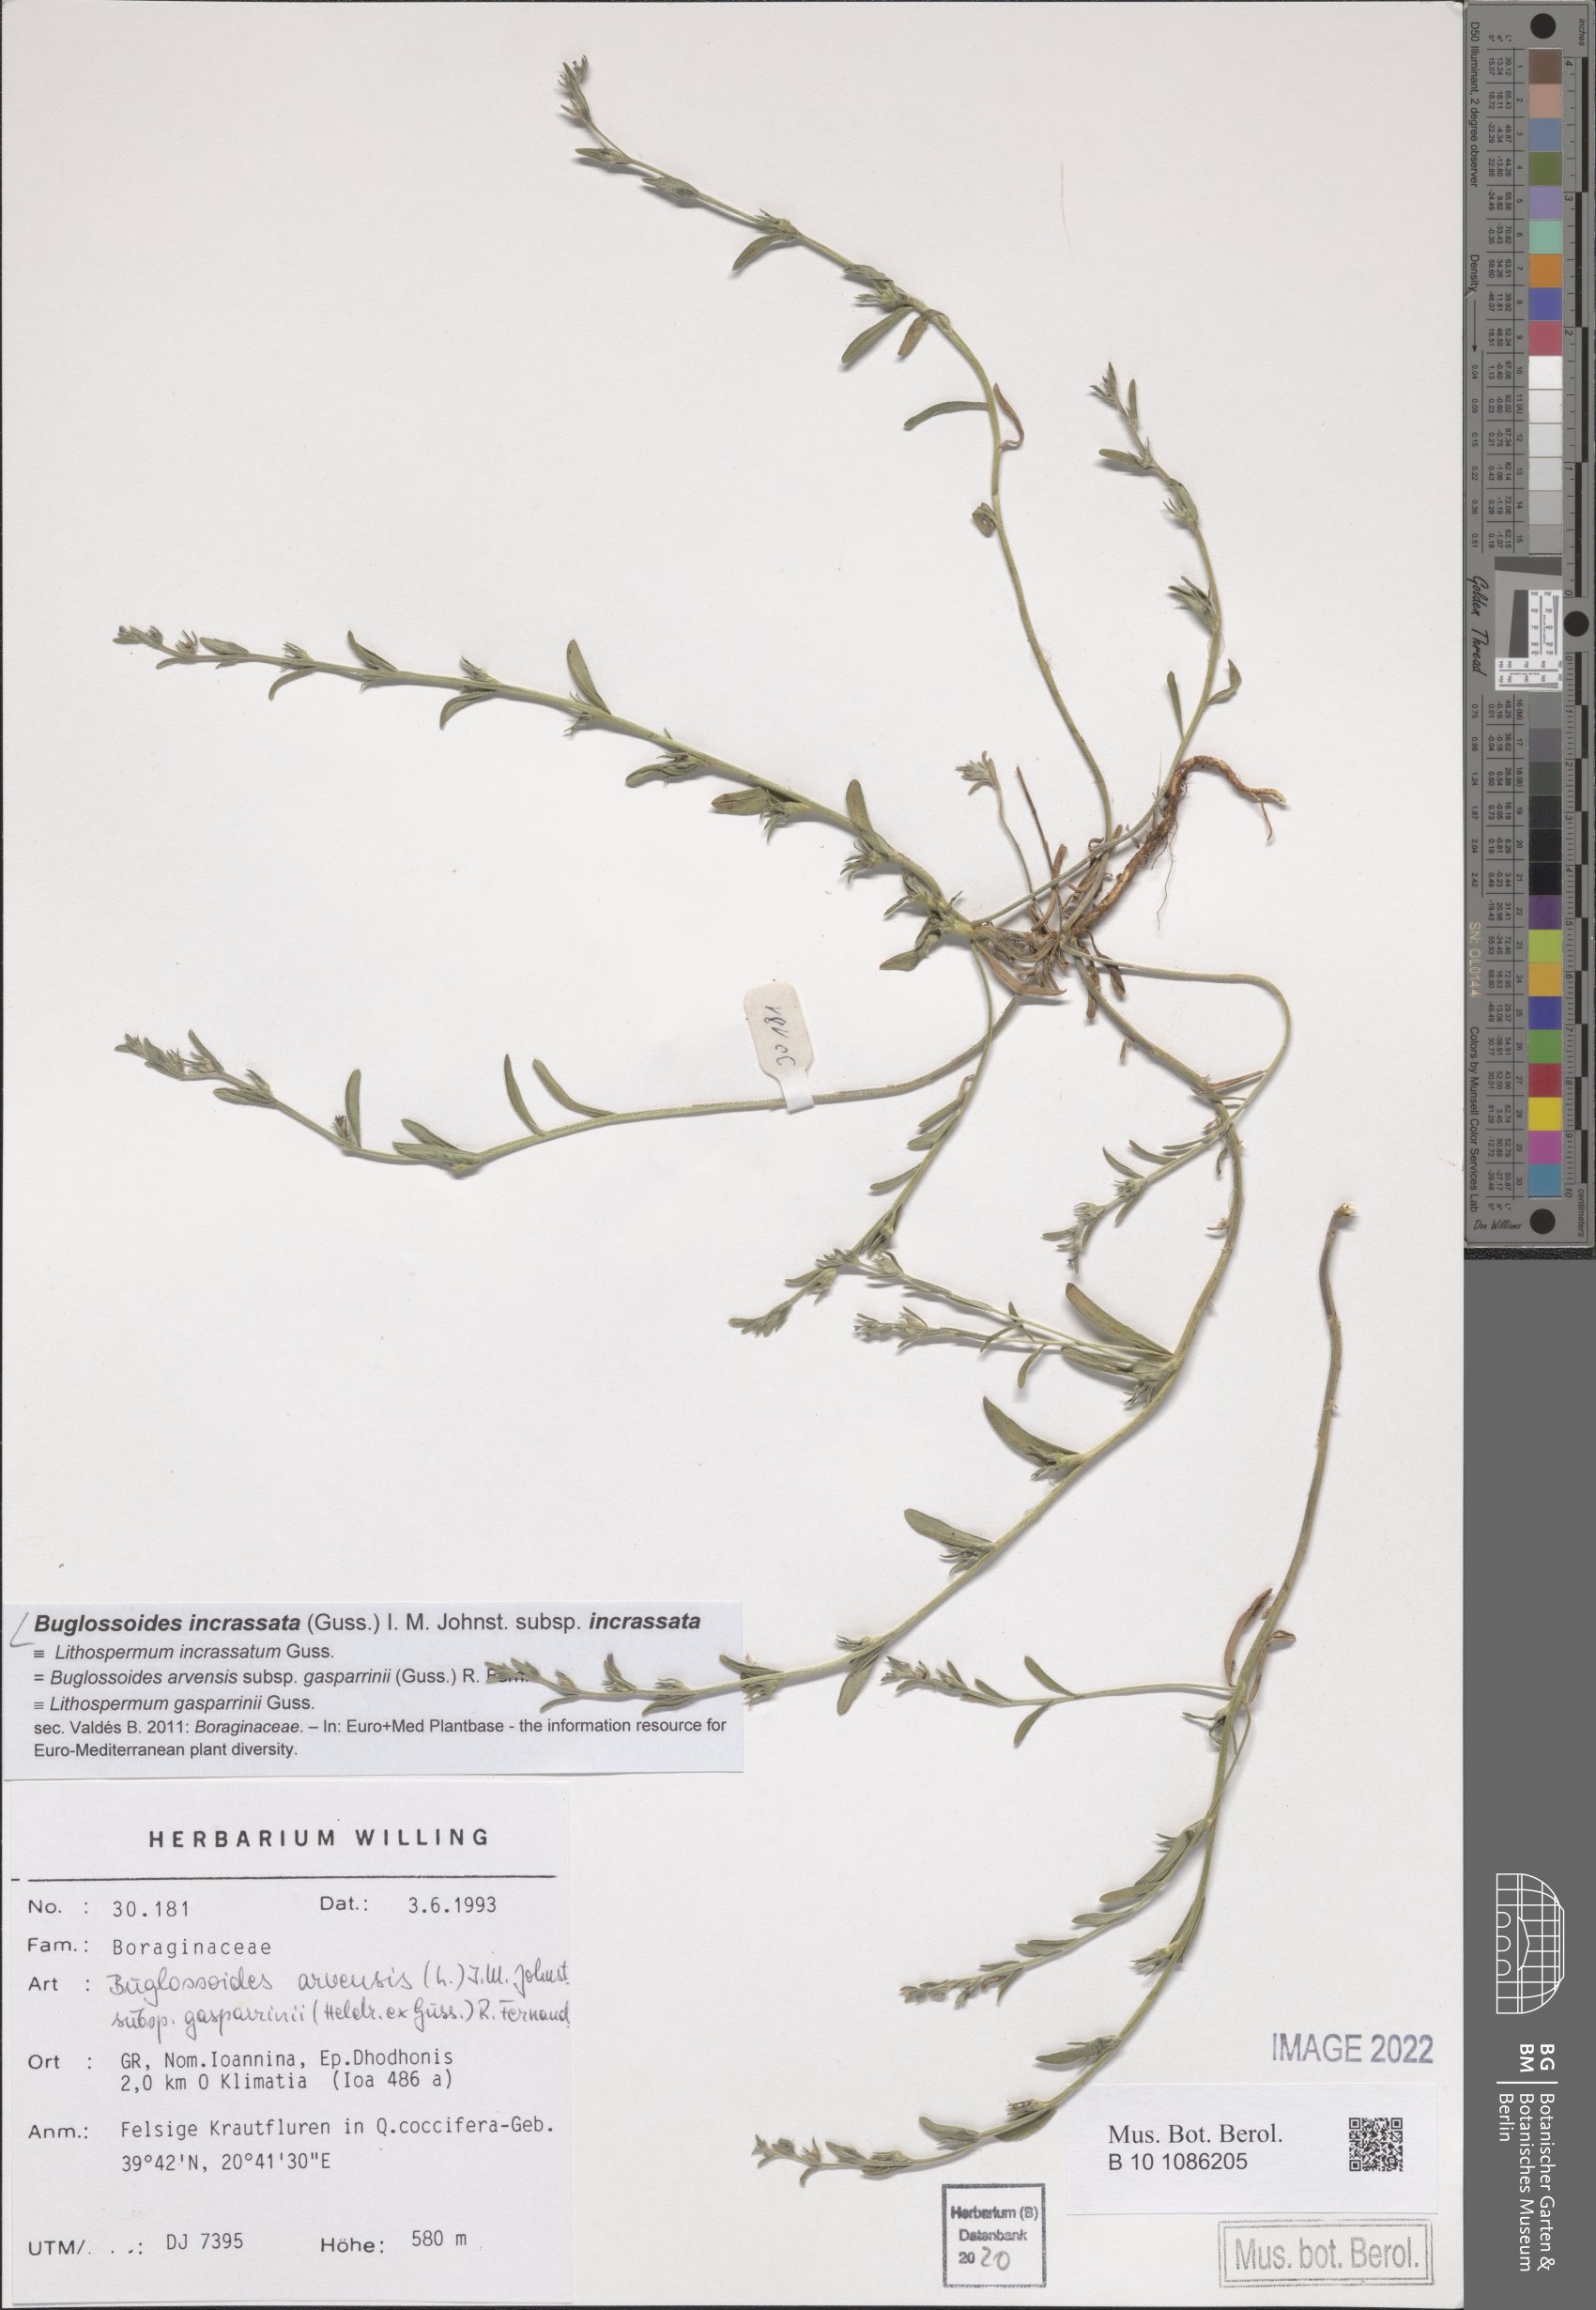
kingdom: Plantae
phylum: Tracheophyta
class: Magnoliopsida
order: Boraginales
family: Boraginaceae
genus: Buglossoides
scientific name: Buglossoides incrassata
